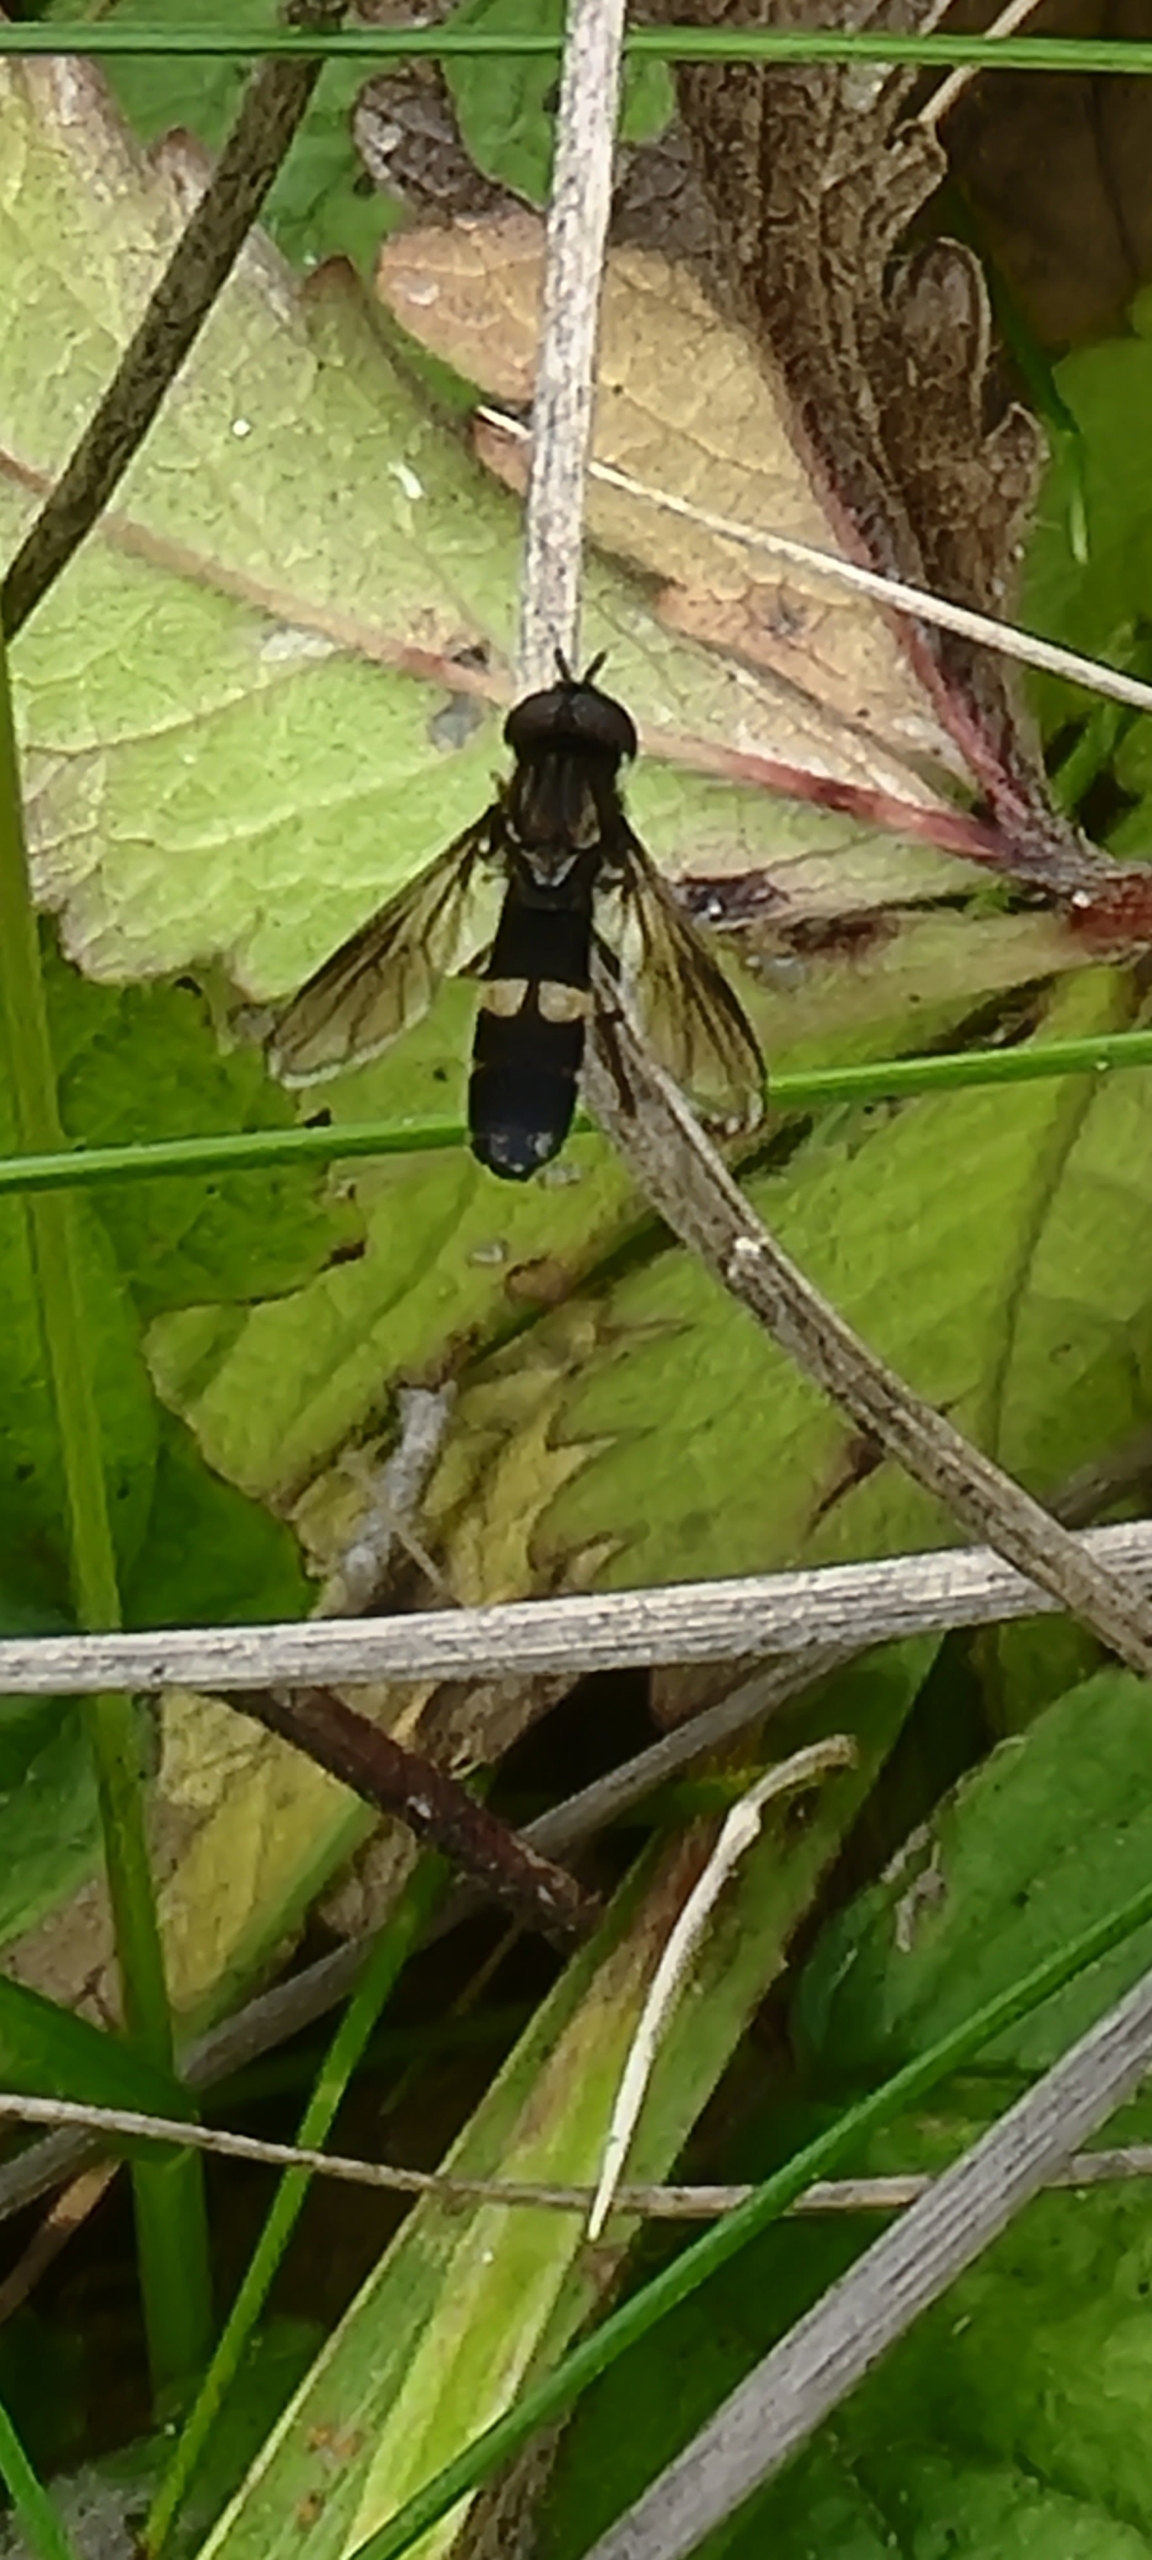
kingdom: Animalia
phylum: Arthropoda
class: Insecta
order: Diptera
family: Syrphidae
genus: Pyrophaena
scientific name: Pyrophaena rosarum
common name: Toplettet ildsvirreflue
